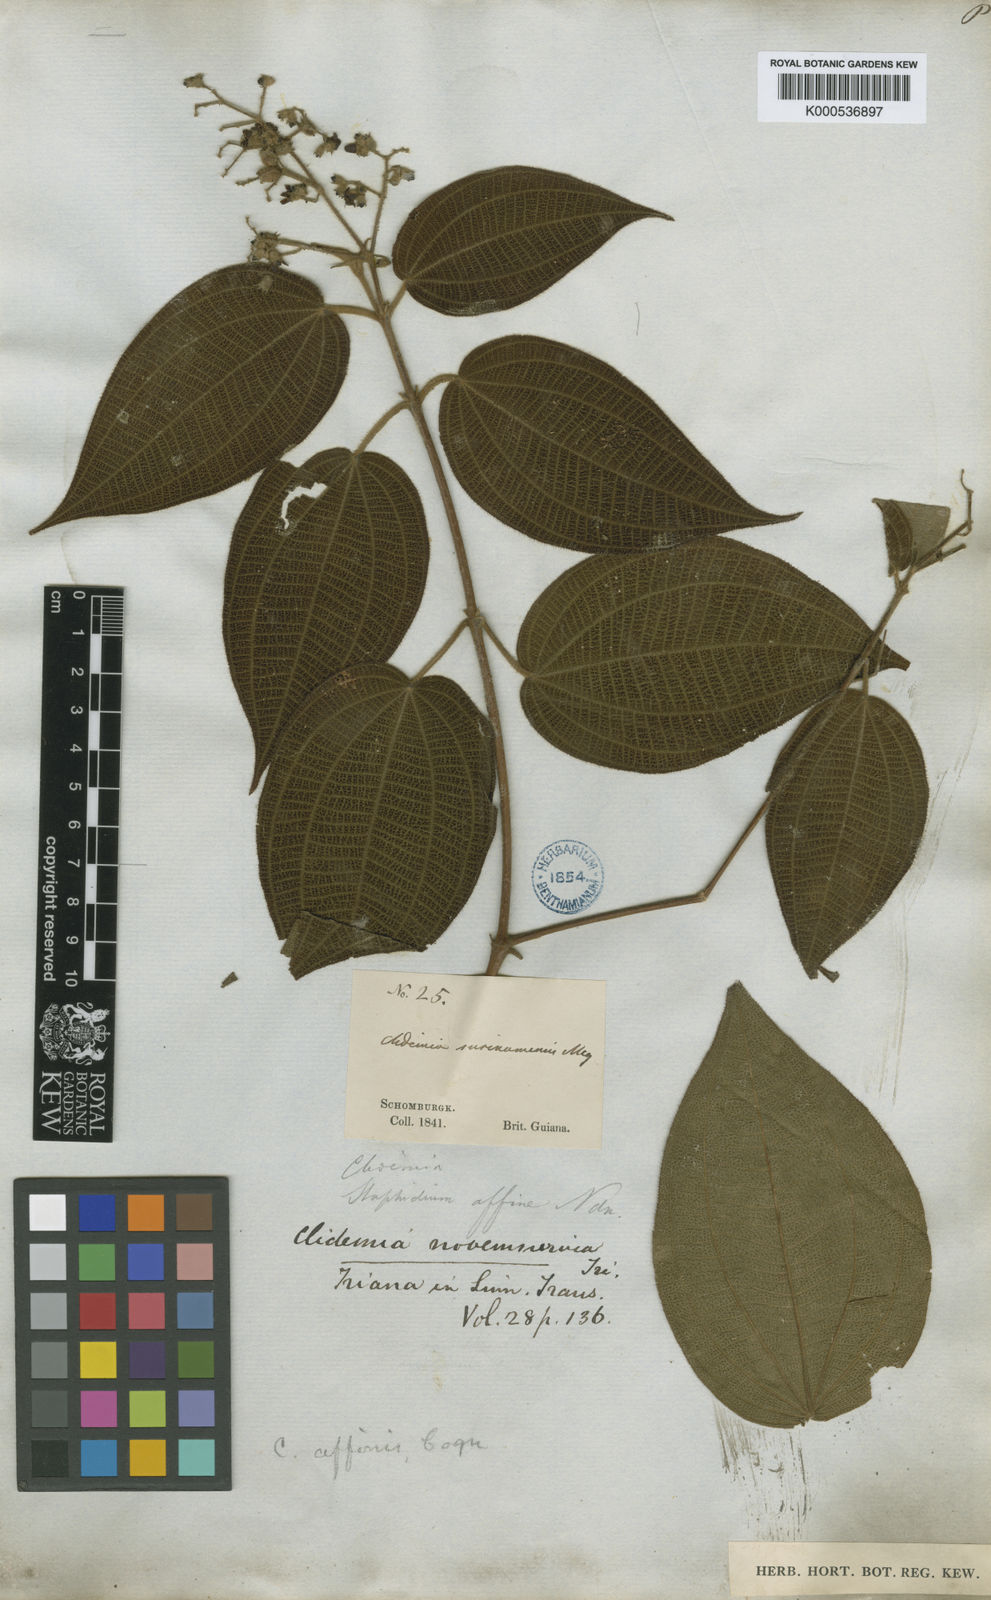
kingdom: Plantae
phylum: Tracheophyta
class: Magnoliopsida
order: Myrtales
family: Melastomataceae
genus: Miconia
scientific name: Miconia fenestrata
